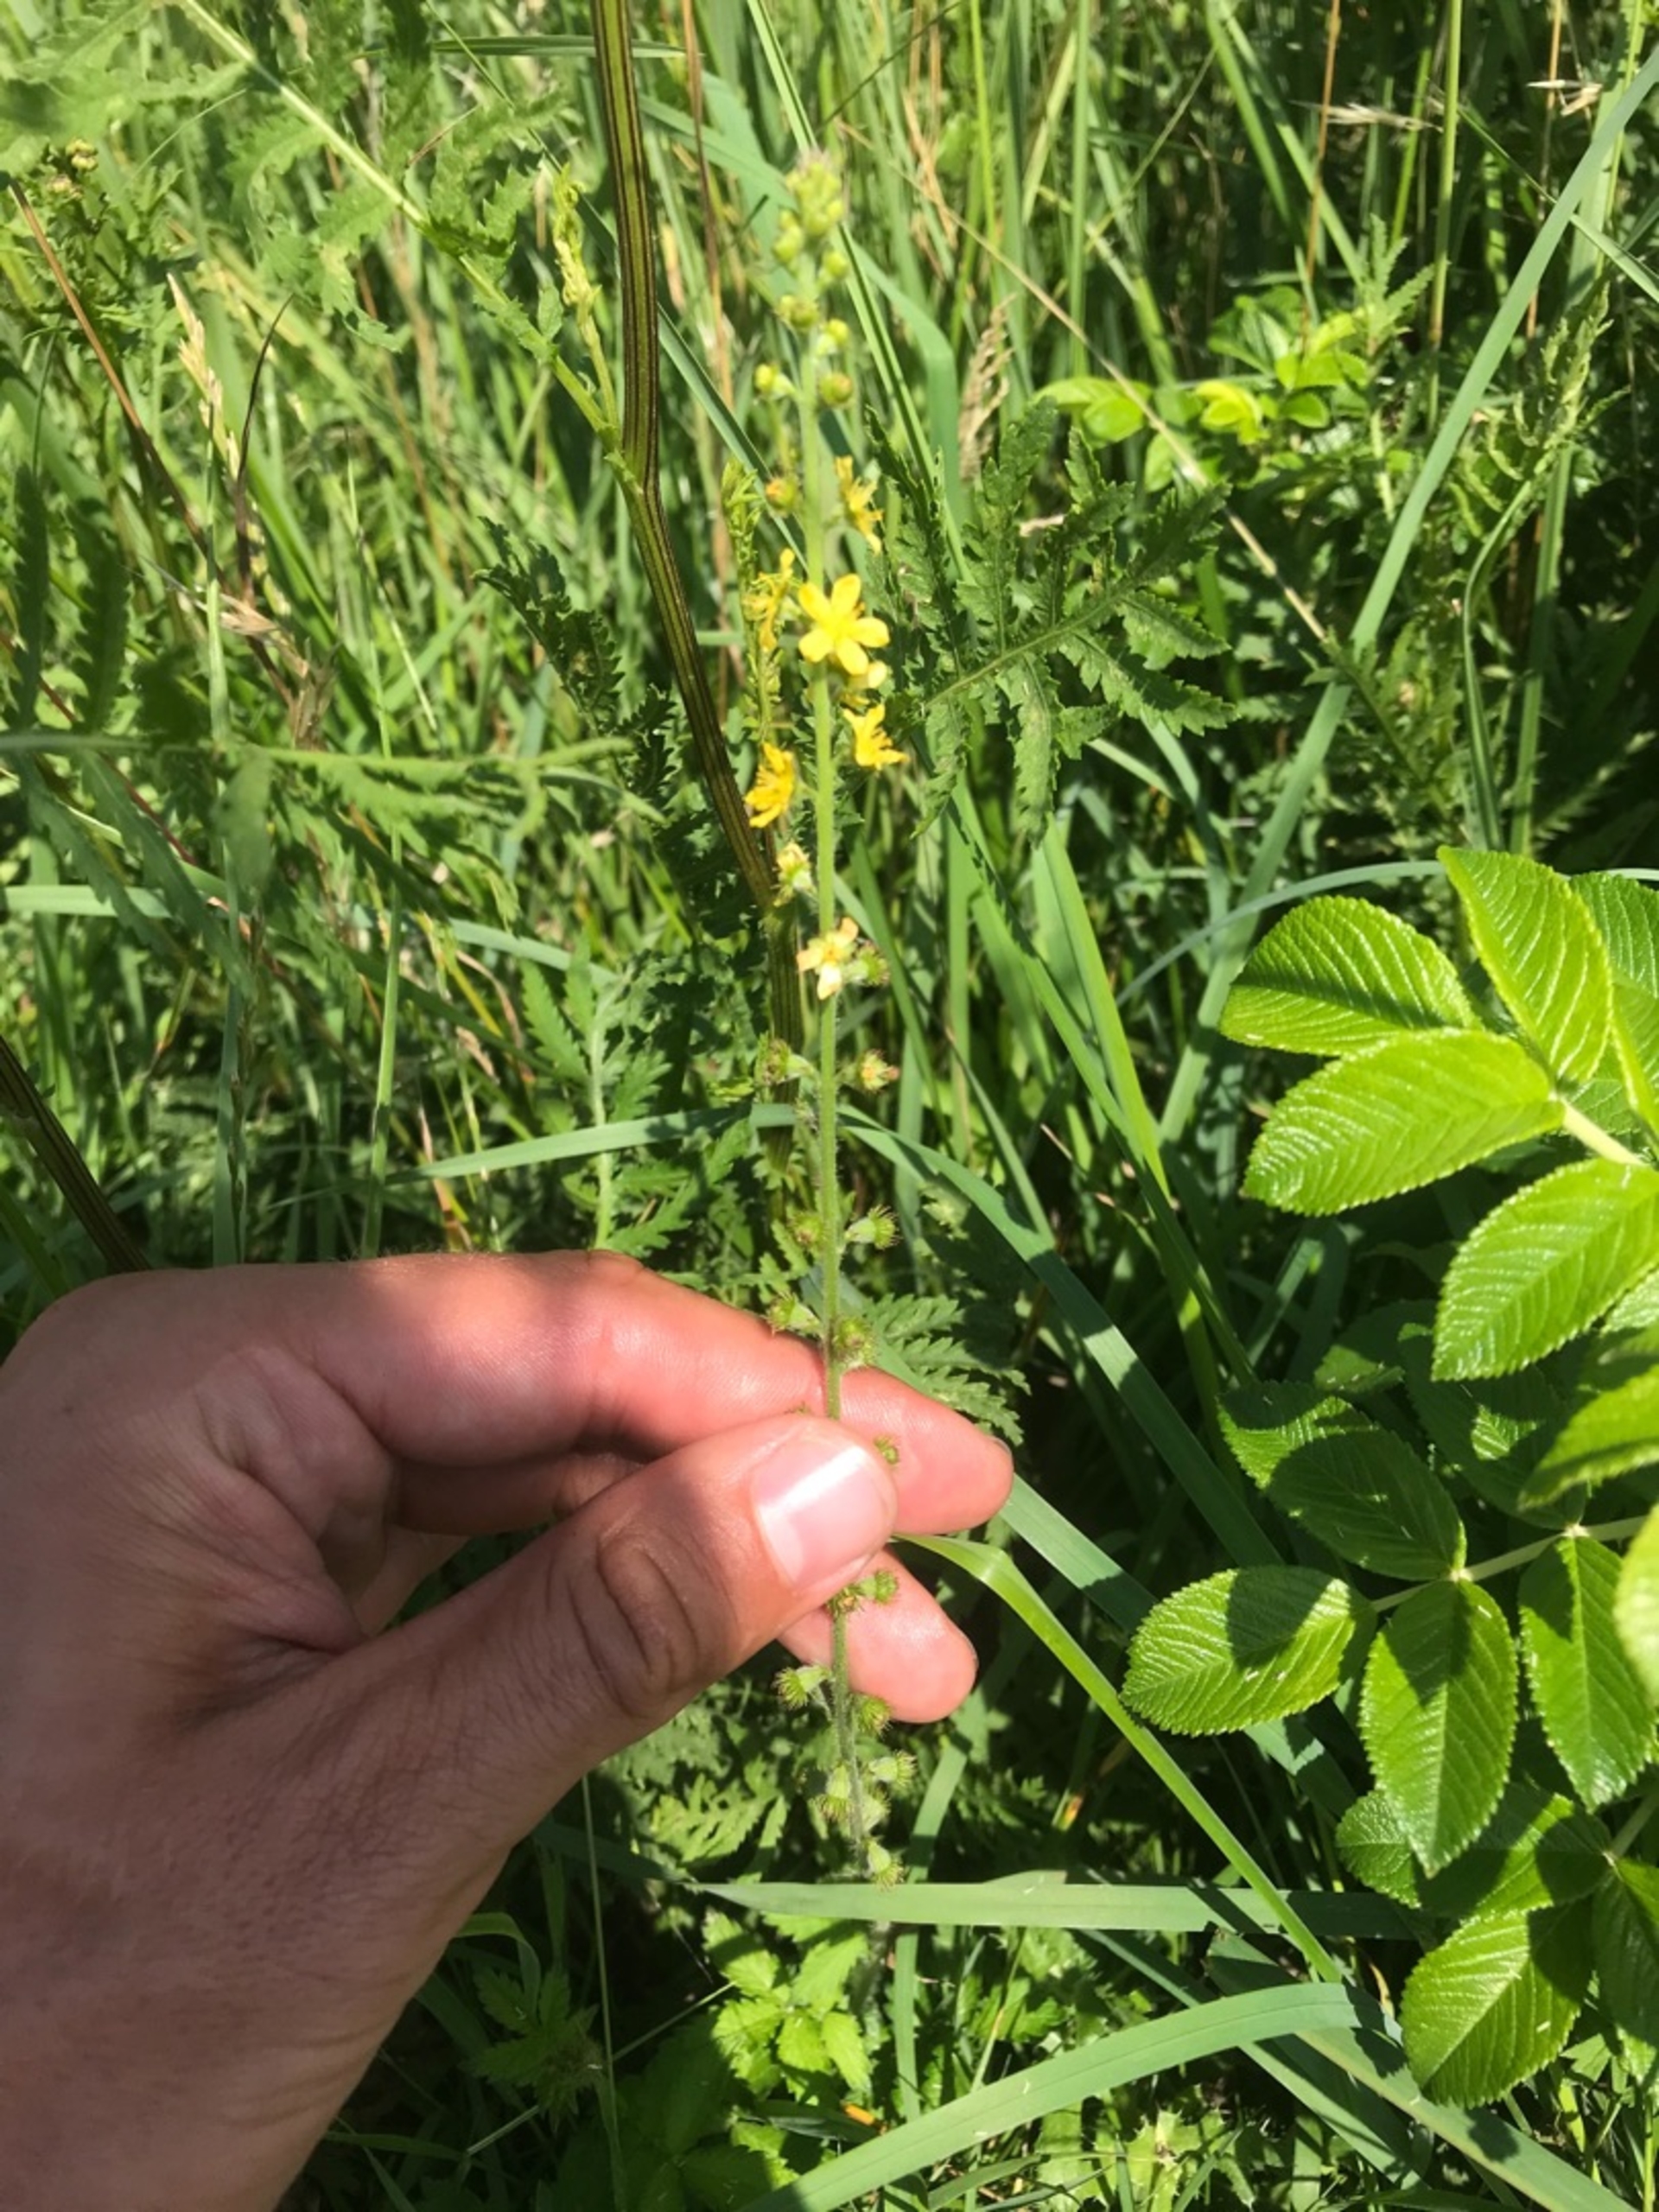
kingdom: Plantae
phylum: Tracheophyta
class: Magnoliopsida
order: Rosales
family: Rosaceae
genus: Agrimonia
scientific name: Agrimonia eupatoria
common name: Almindelig agermåne
